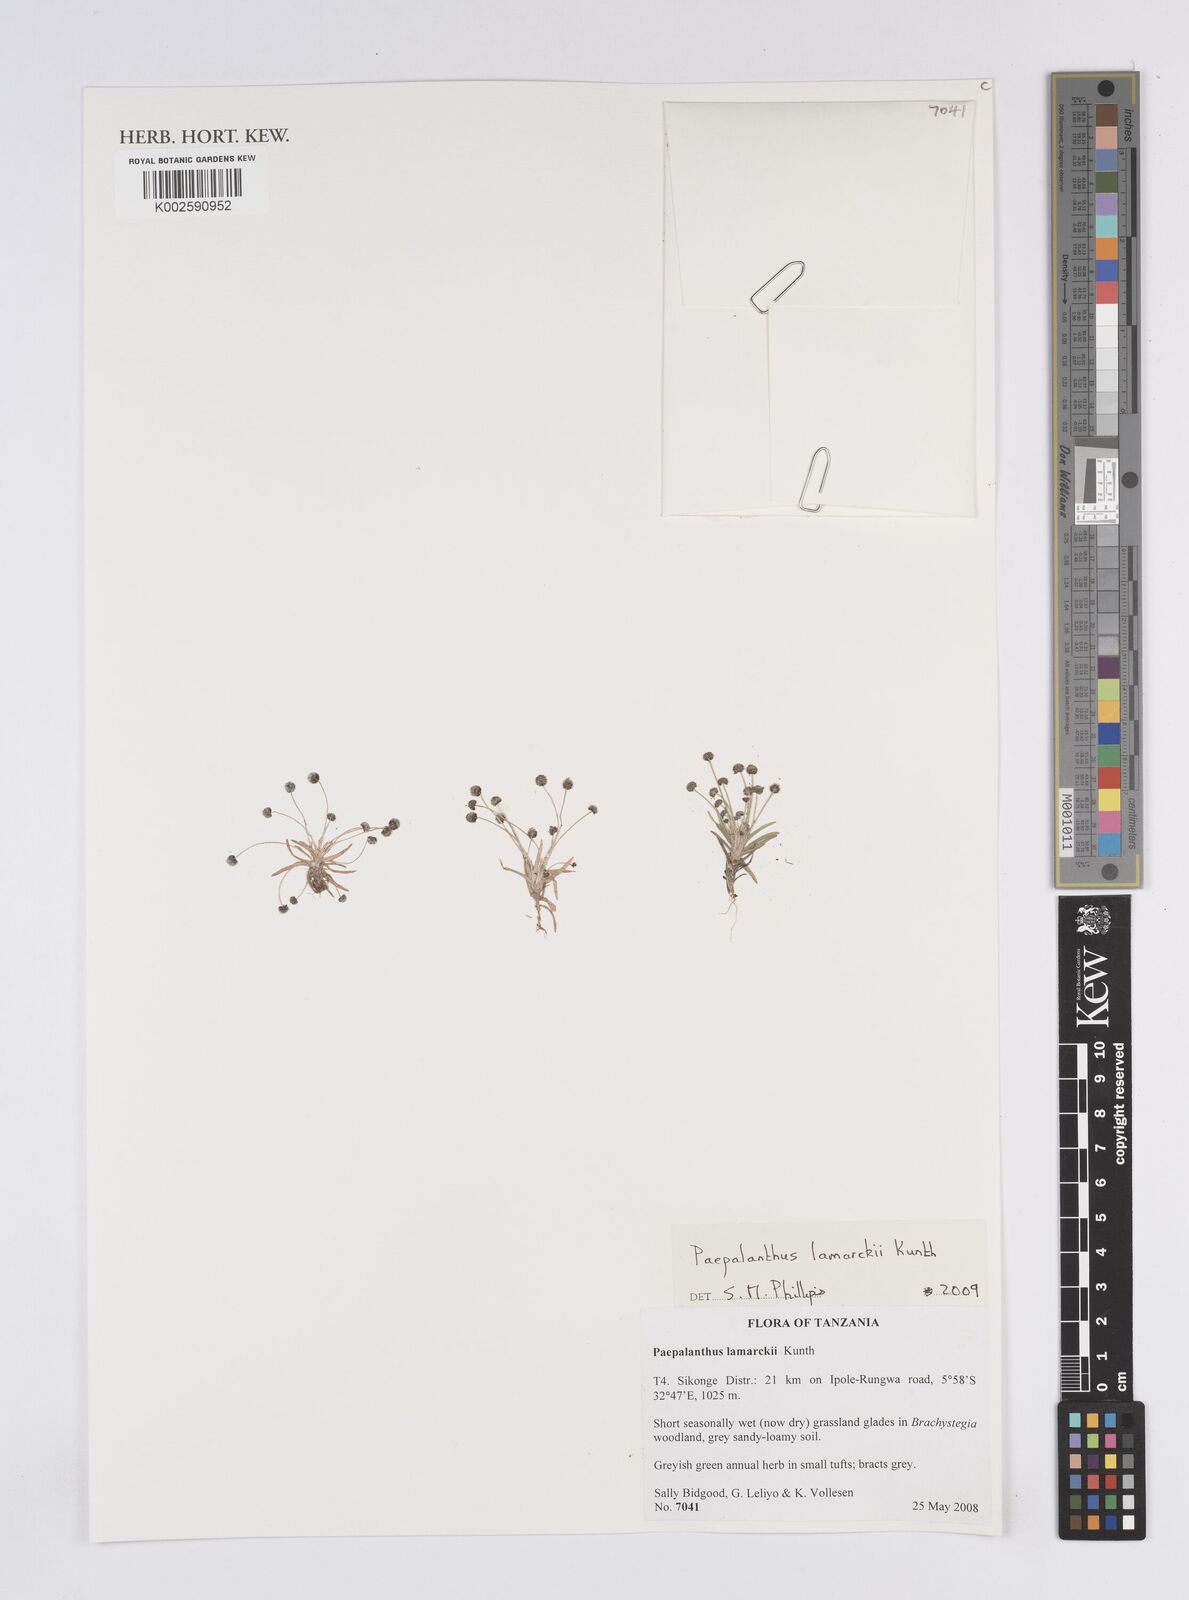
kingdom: Plantae
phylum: Tracheophyta
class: Liliopsida
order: Poales
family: Eriocaulaceae
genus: Paepalanthus
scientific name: Paepalanthus lamarckii
